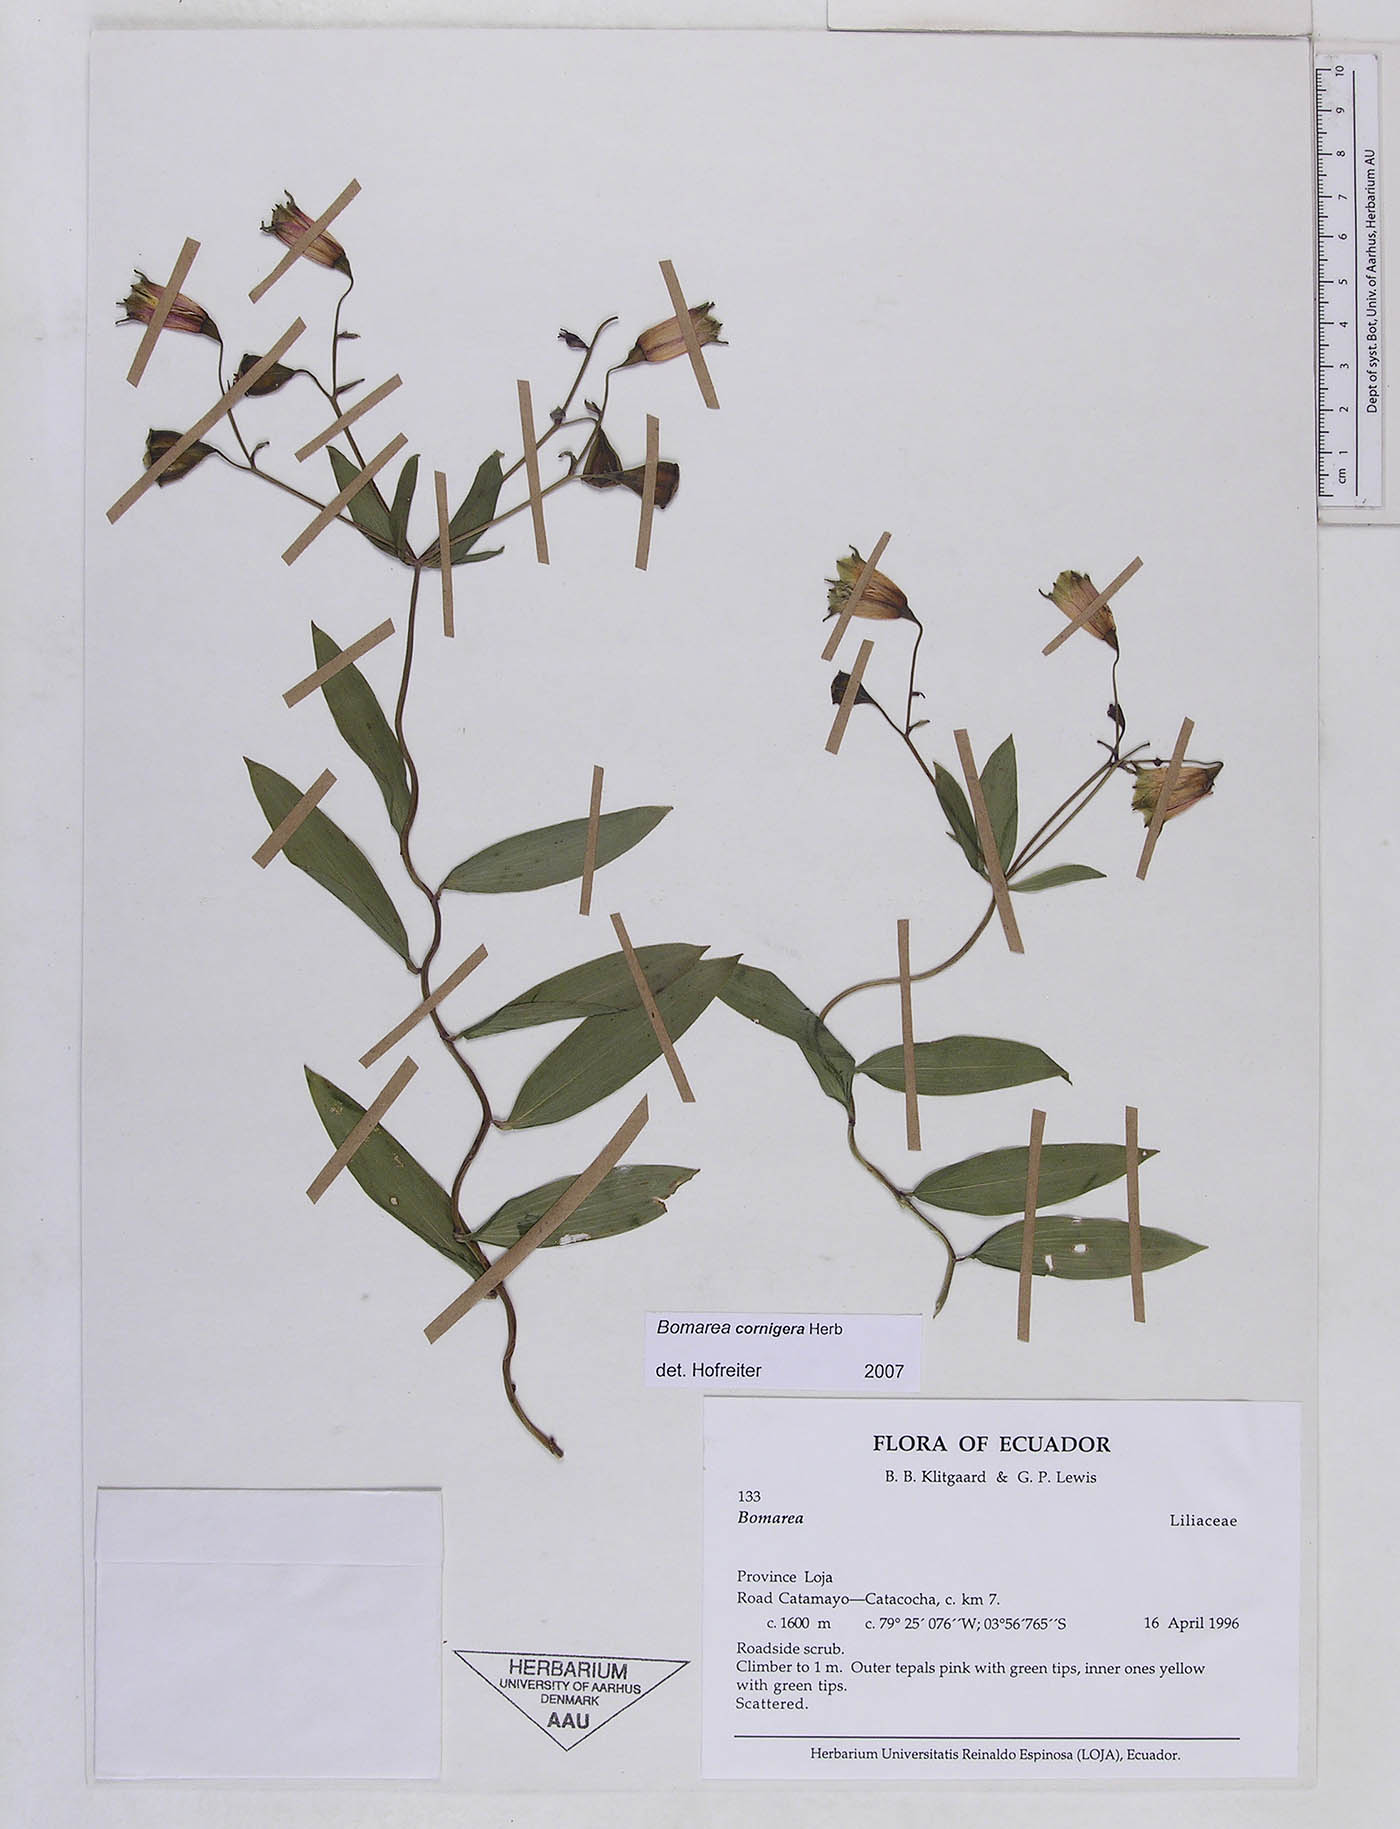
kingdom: Plantae
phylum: Tracheophyta
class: Liliopsida
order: Liliales
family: Alstroemeriaceae
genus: Bomarea
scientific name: Bomarea cornigera
